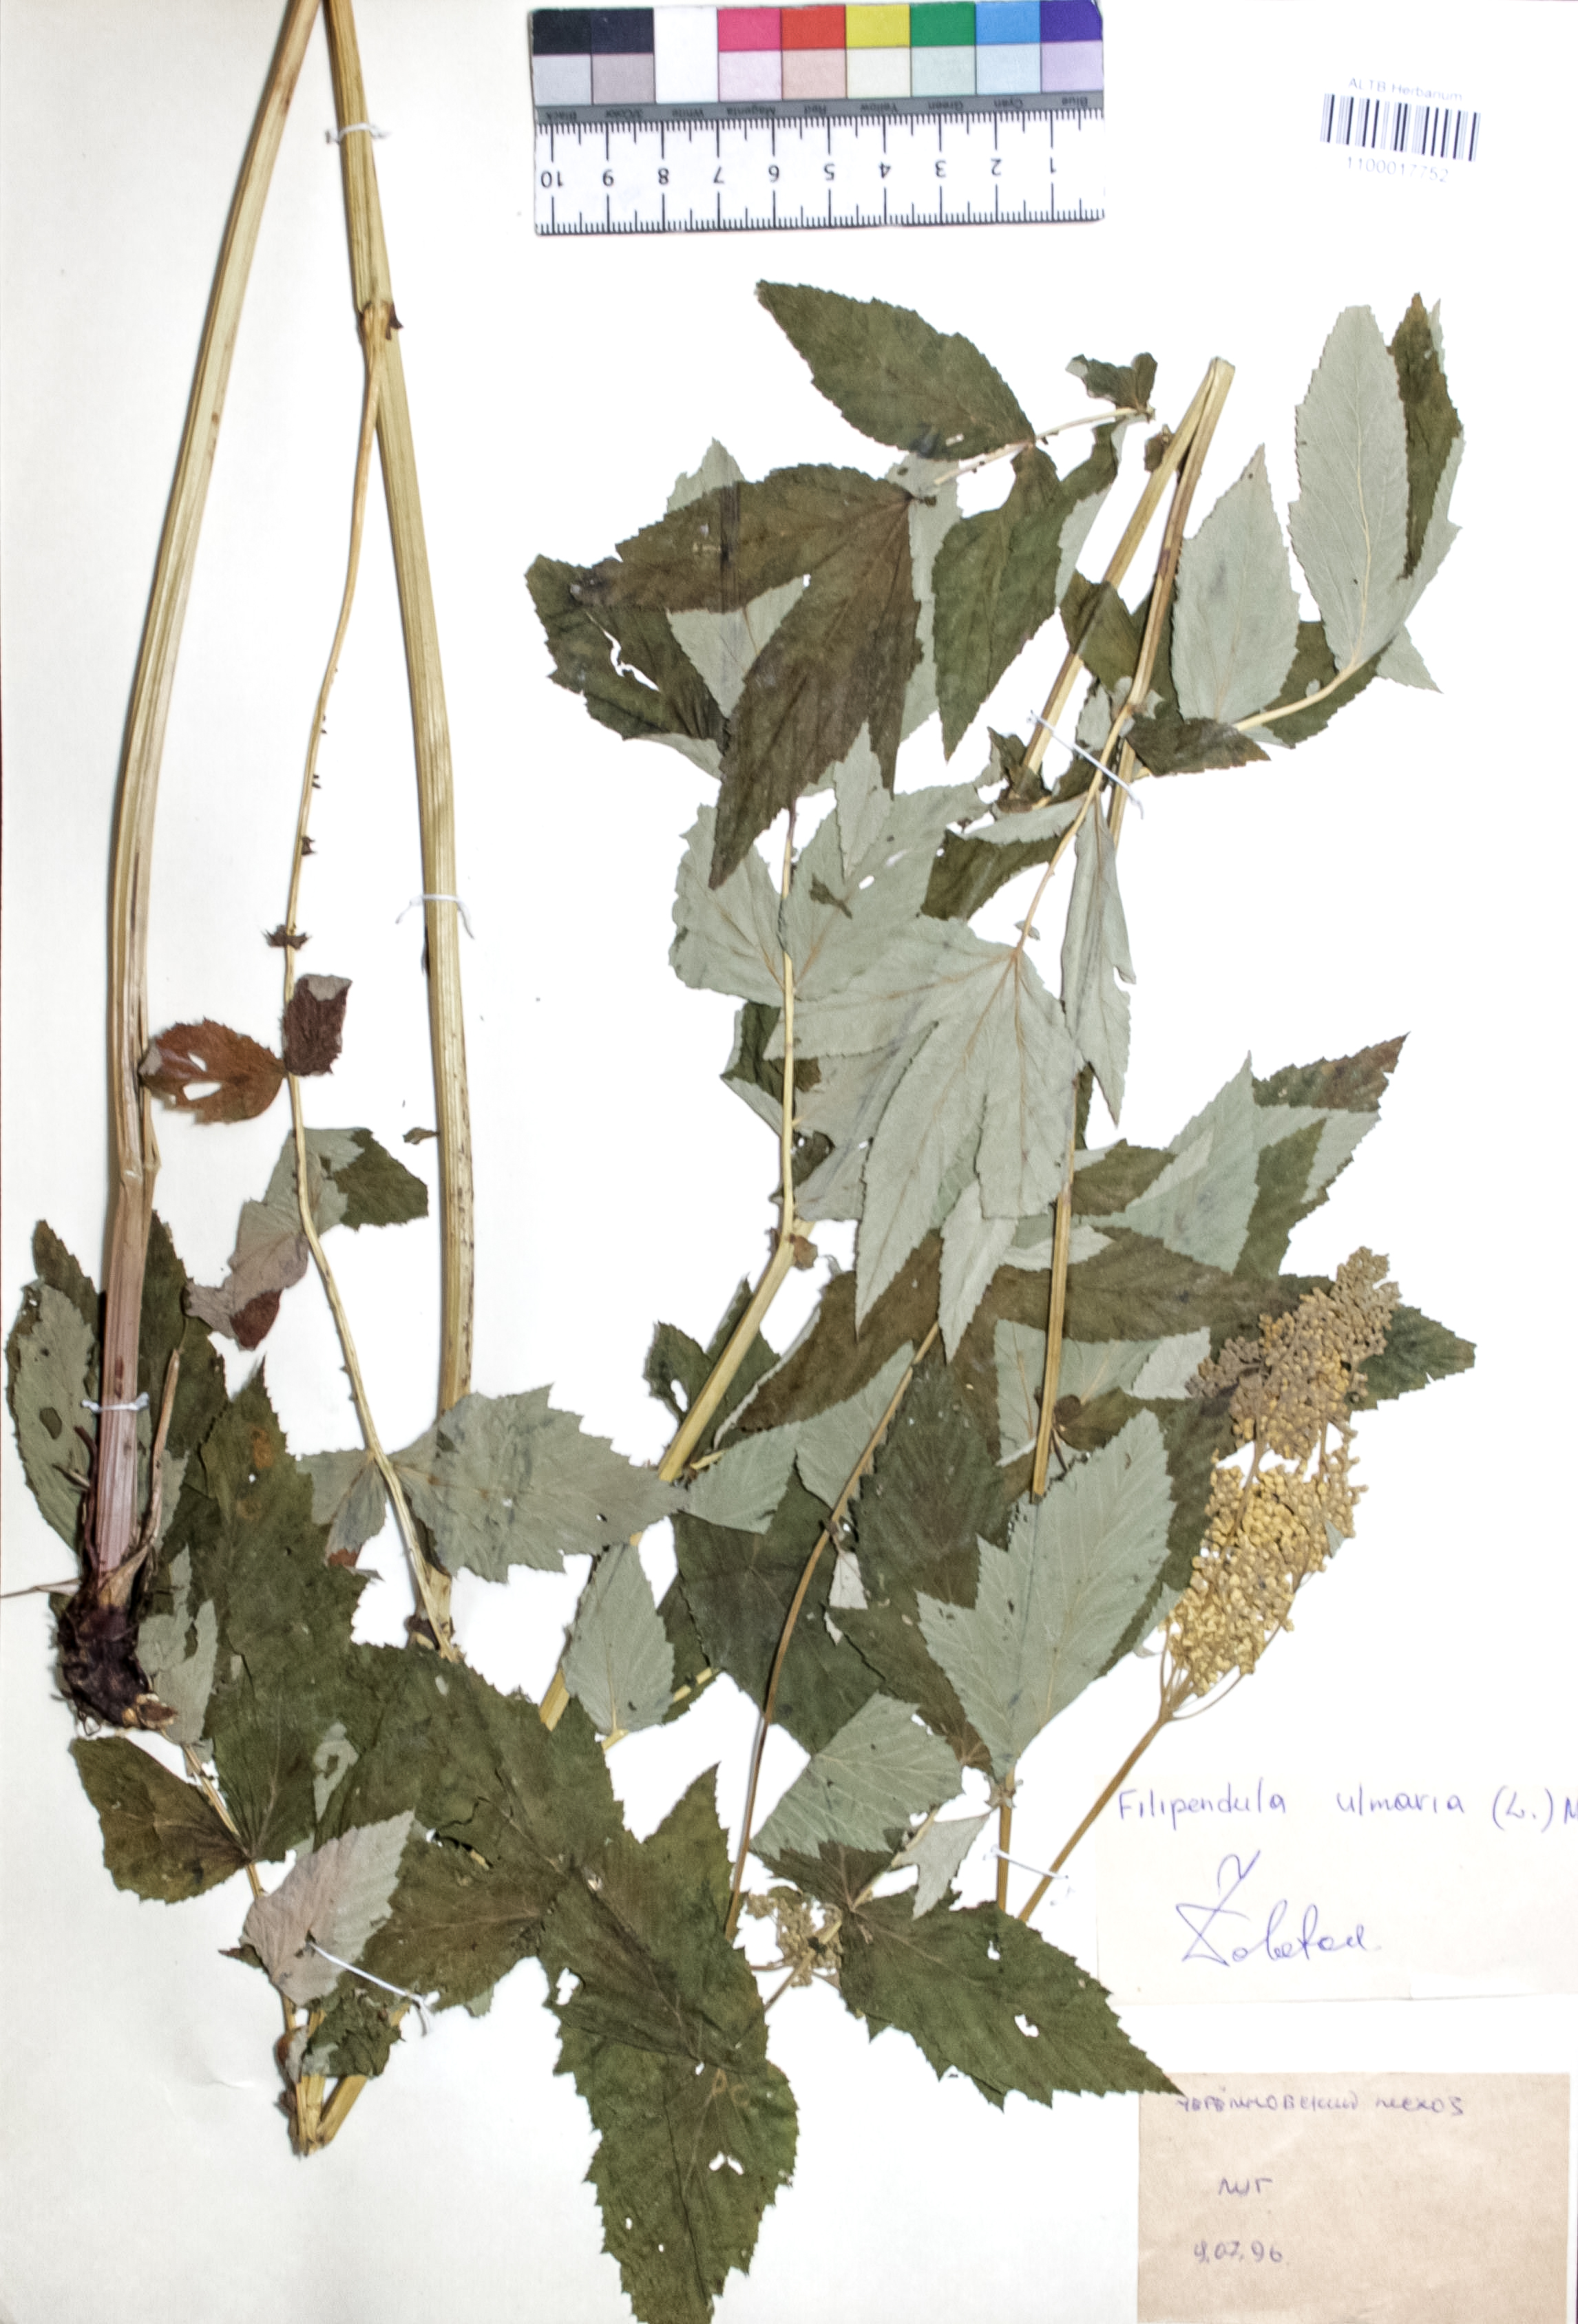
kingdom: Plantae
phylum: Tracheophyta
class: Magnoliopsida
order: Rosales
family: Rosaceae
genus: Filipendula
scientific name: Filipendula ulmaria
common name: Meadowsweet
